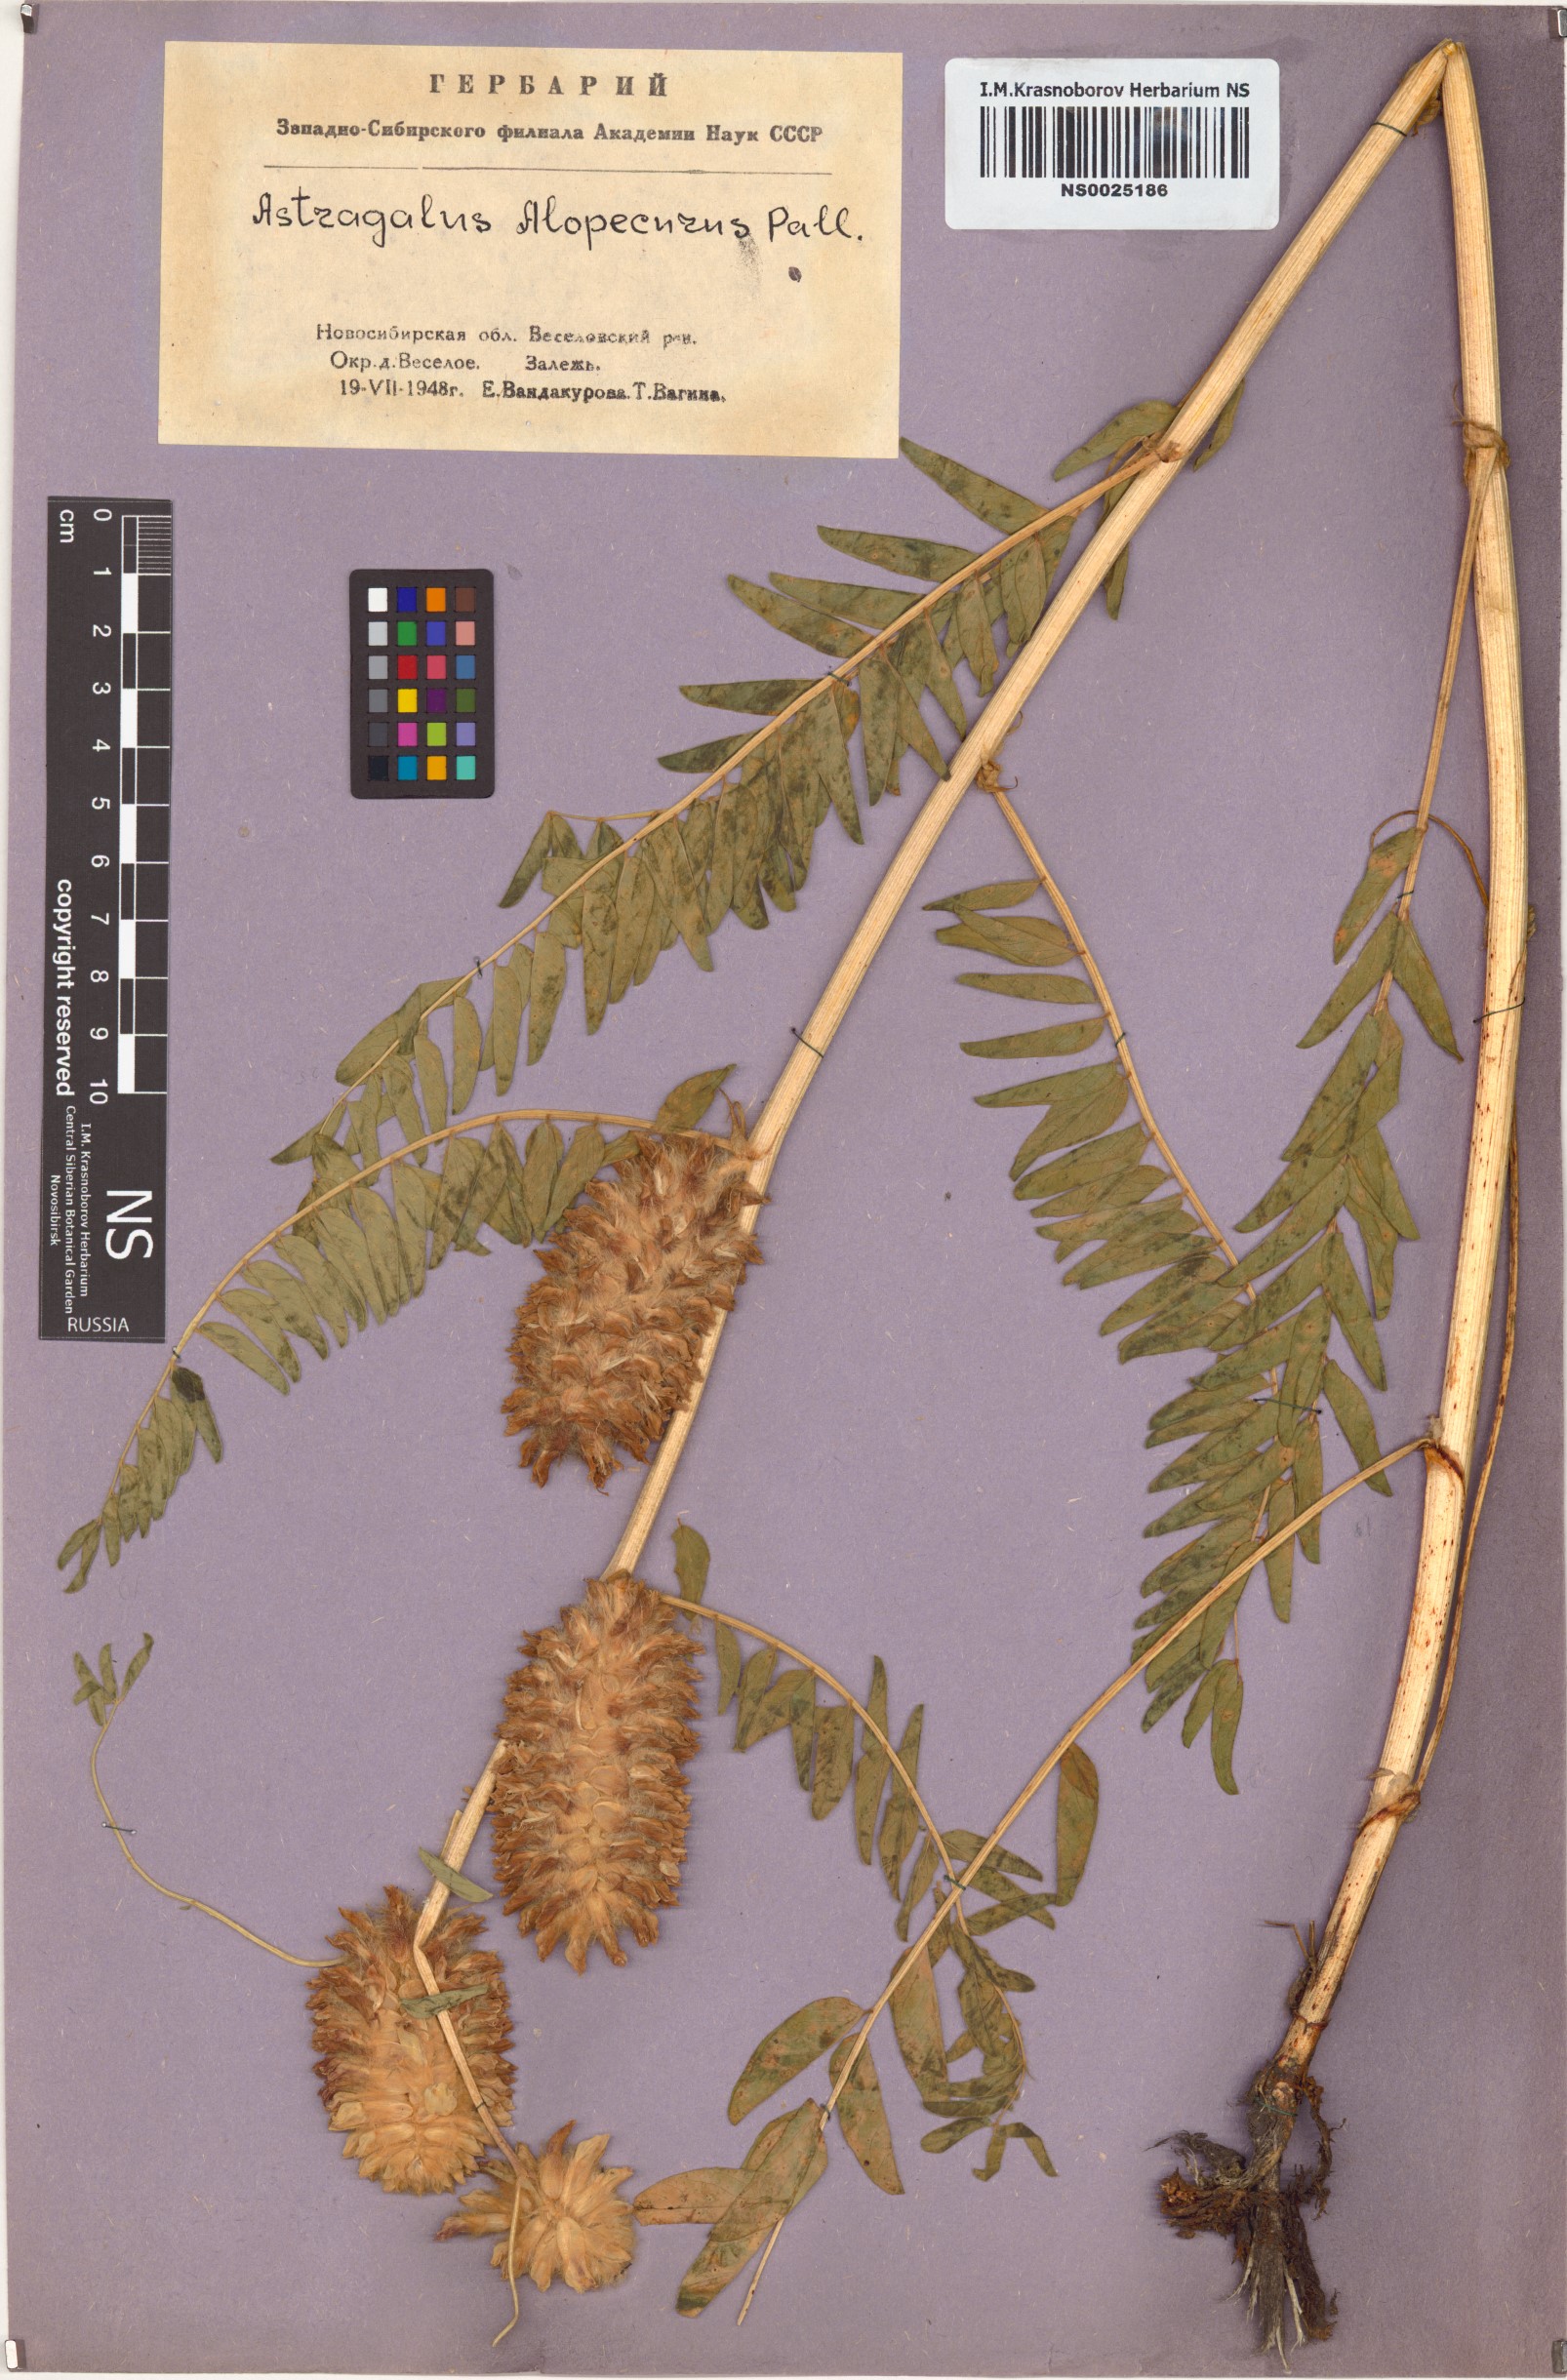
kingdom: Plantae
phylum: Tracheophyta
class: Magnoliopsida
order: Fabales
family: Fabaceae
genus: Astragalus
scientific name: Astragalus alopecurus
